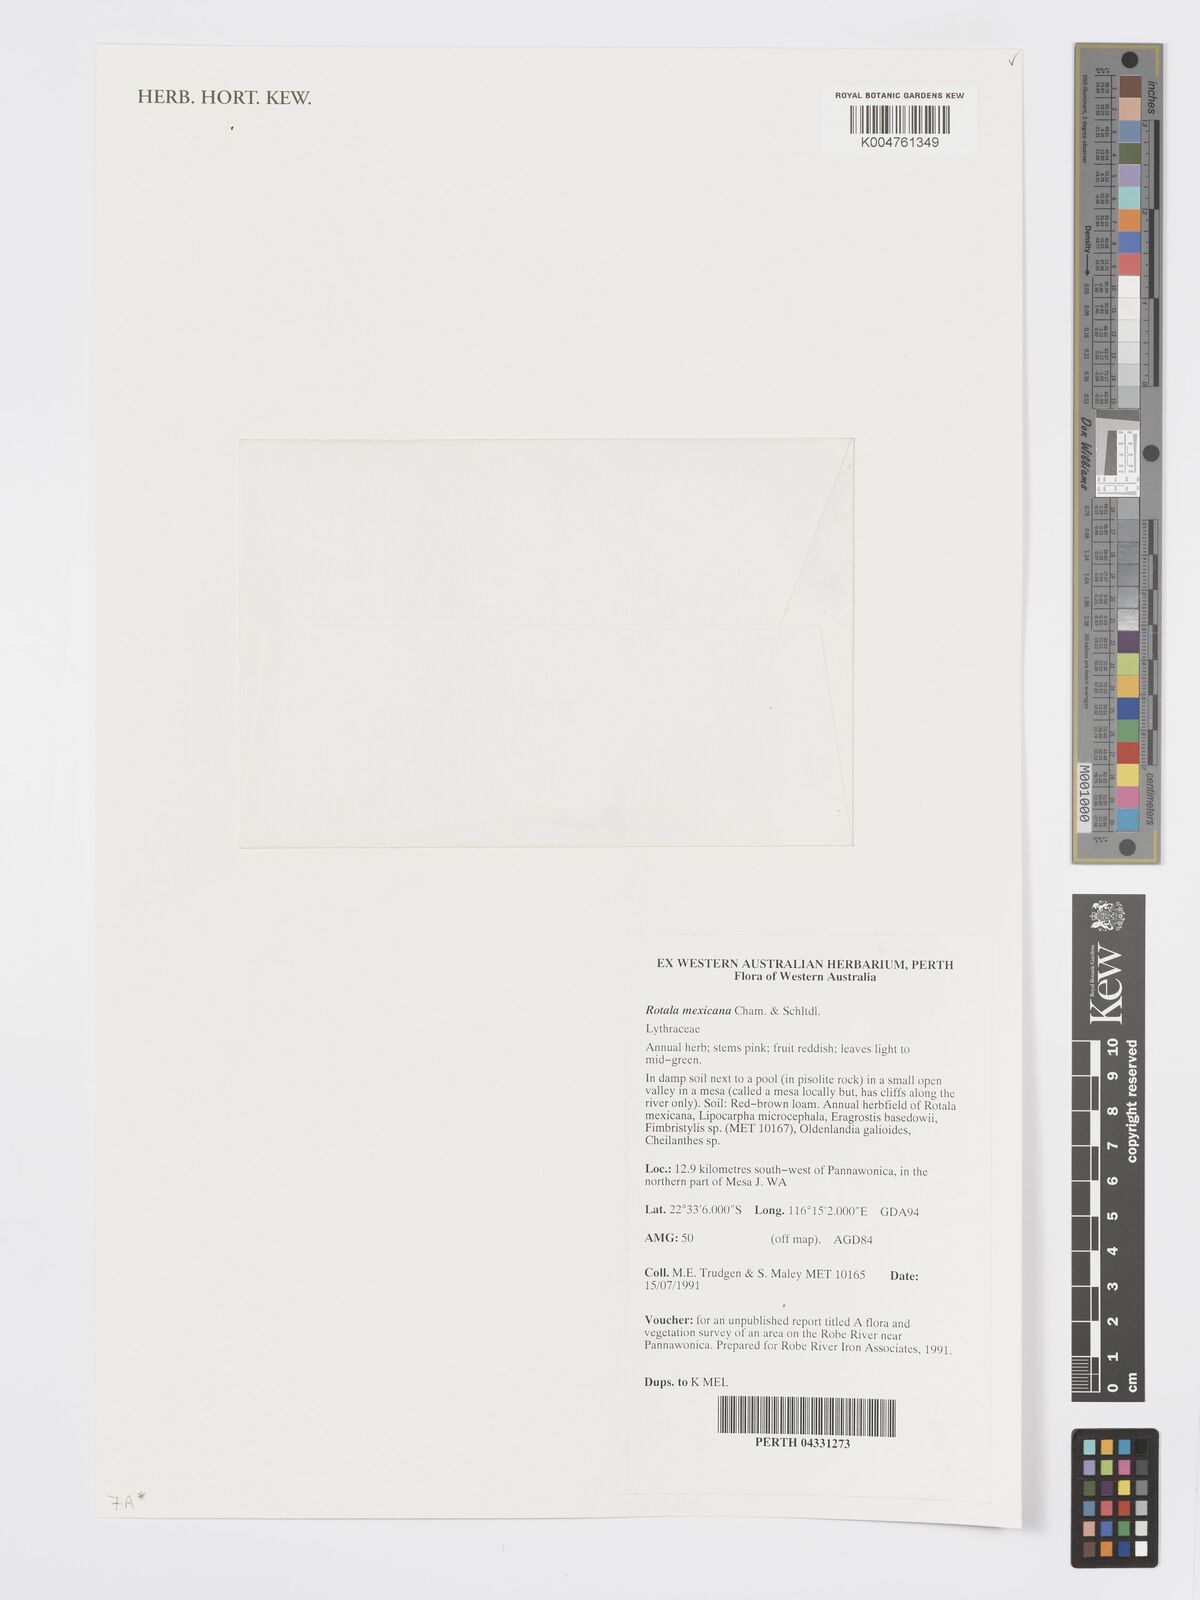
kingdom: Plantae
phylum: Tracheophyta
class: Magnoliopsida
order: Myrtales
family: Lythraceae
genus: Rotala
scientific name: Rotala mexicana
